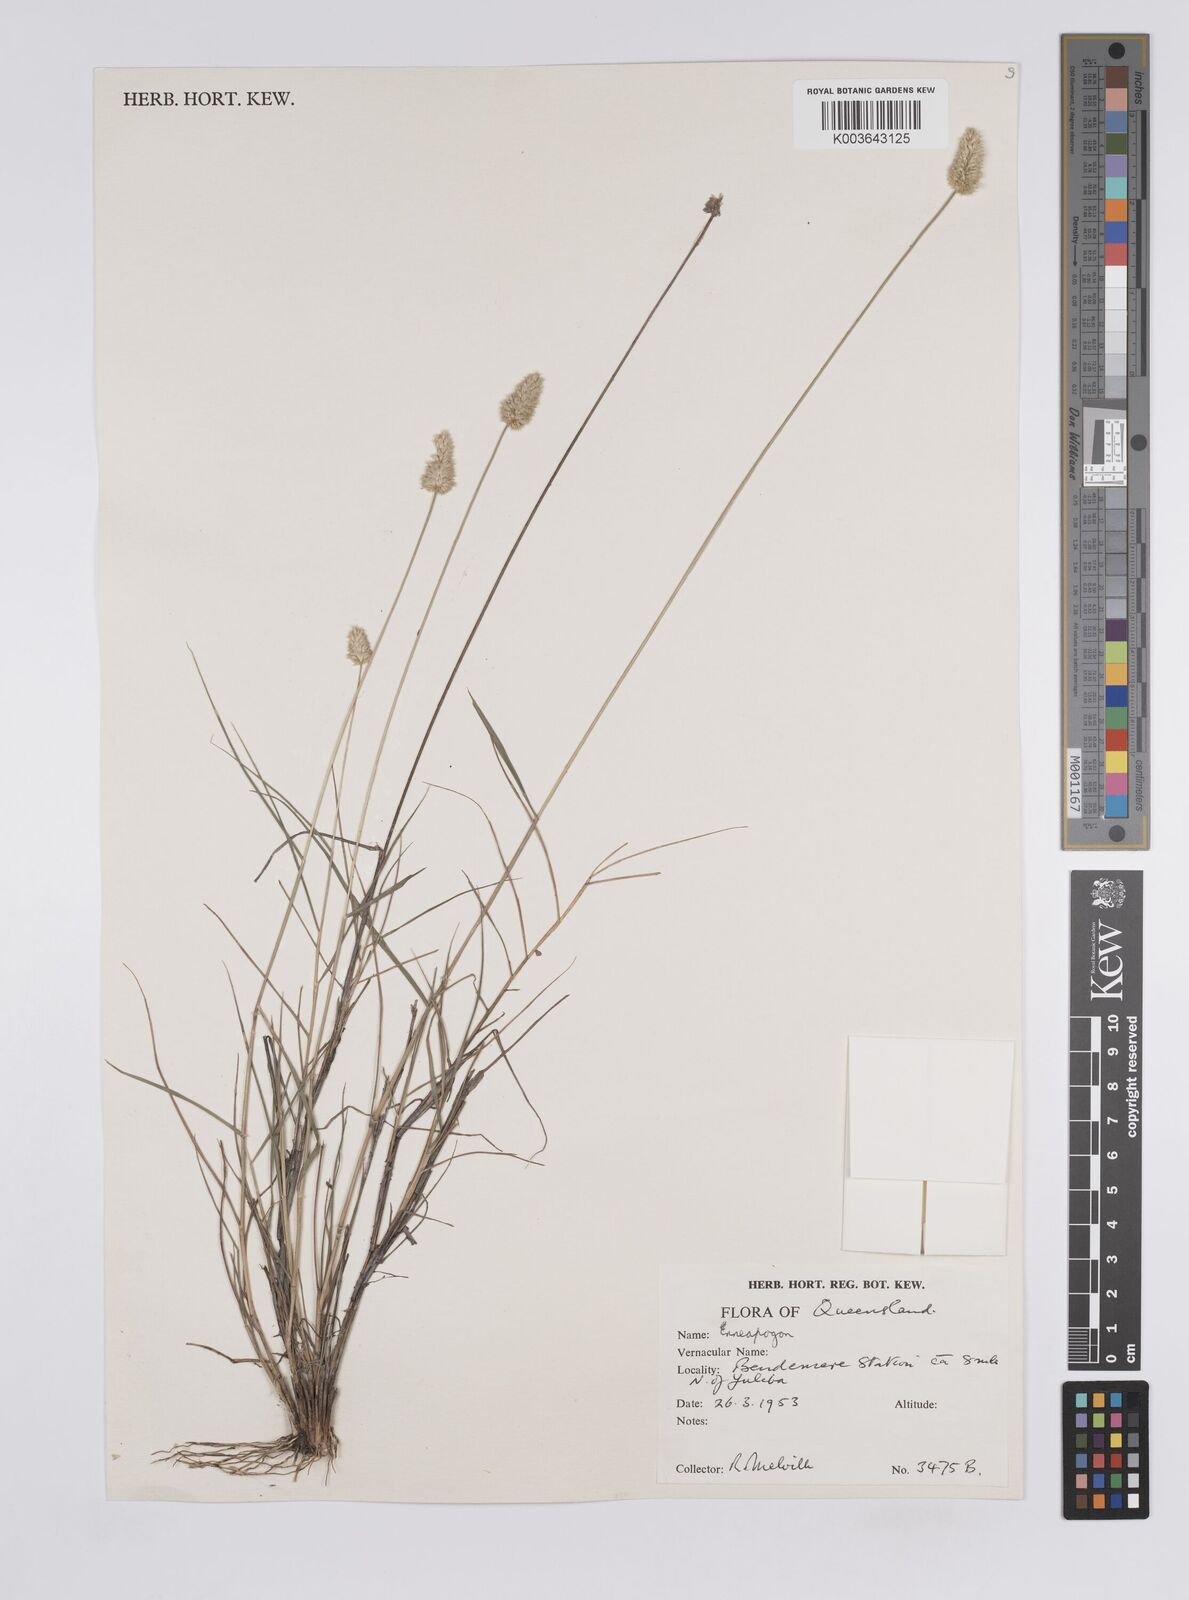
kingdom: Plantae
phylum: Tracheophyta
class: Liliopsida
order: Poales
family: Poaceae
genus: Enneapogon
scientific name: Enneapogon lindleyanus
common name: Conetop nineawn
